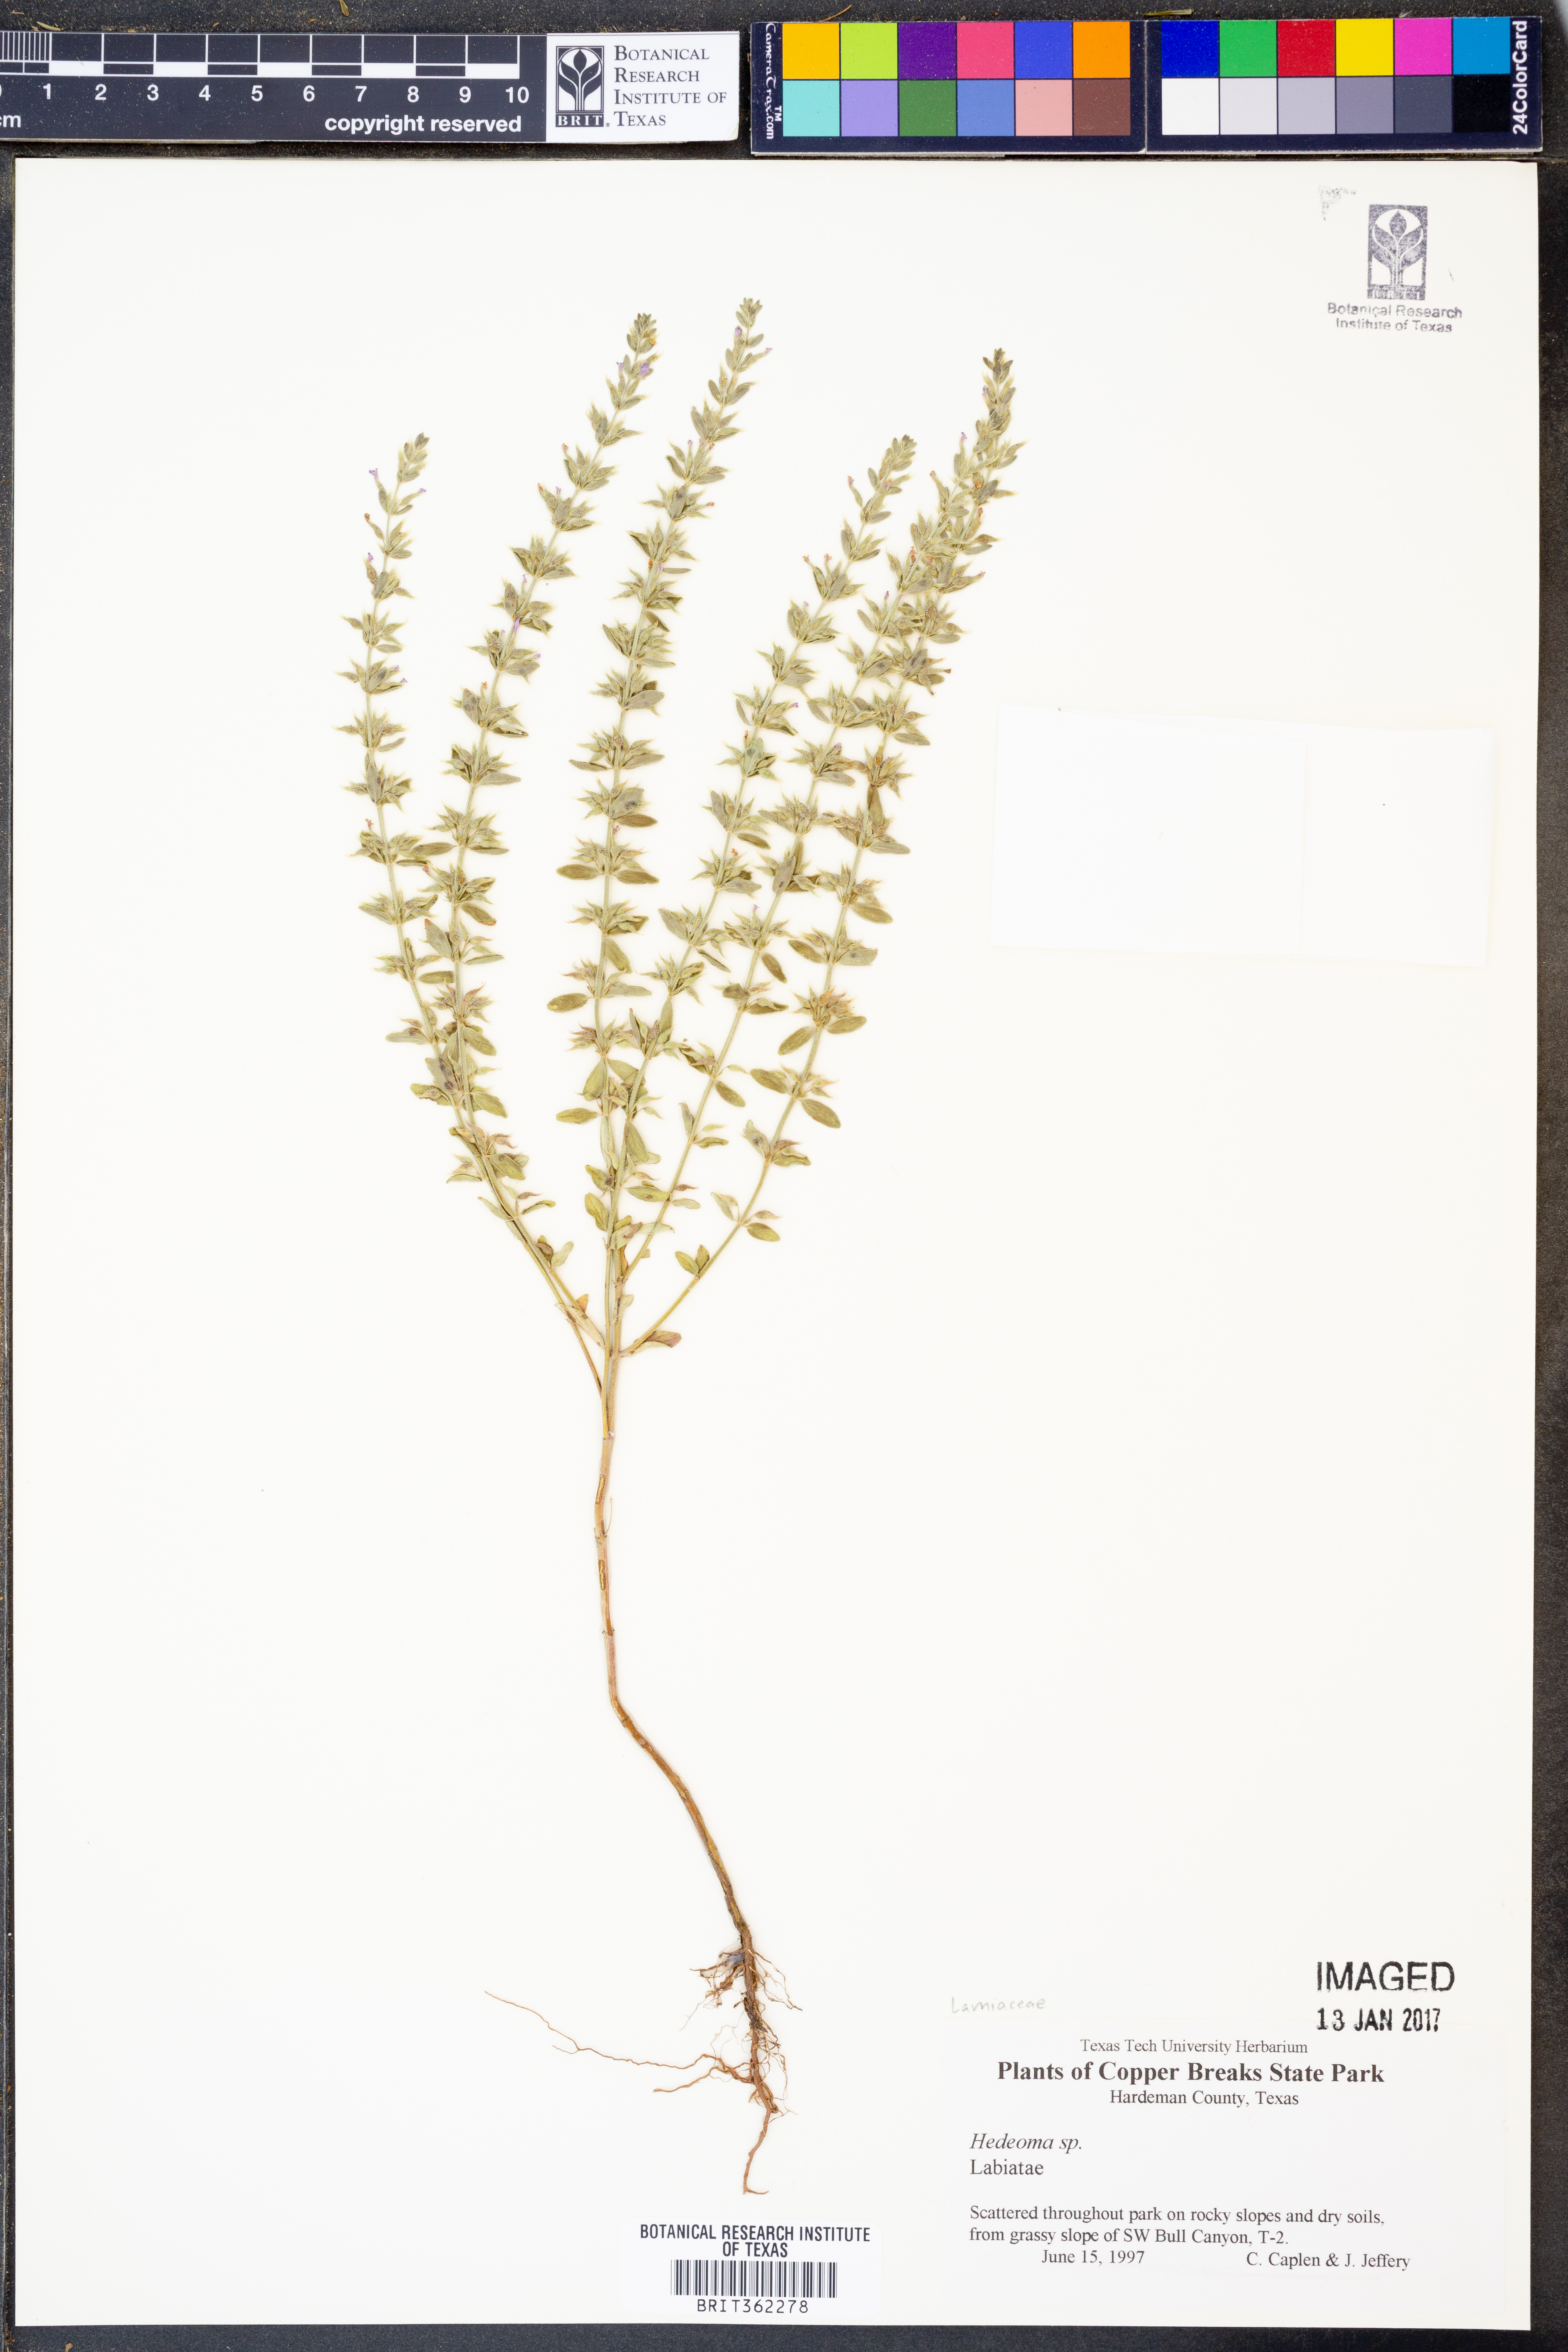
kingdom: Plantae
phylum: Tracheophyta
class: Magnoliopsida
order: Lamiales
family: Lamiaceae
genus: Hedeoma
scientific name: Hedeoma
